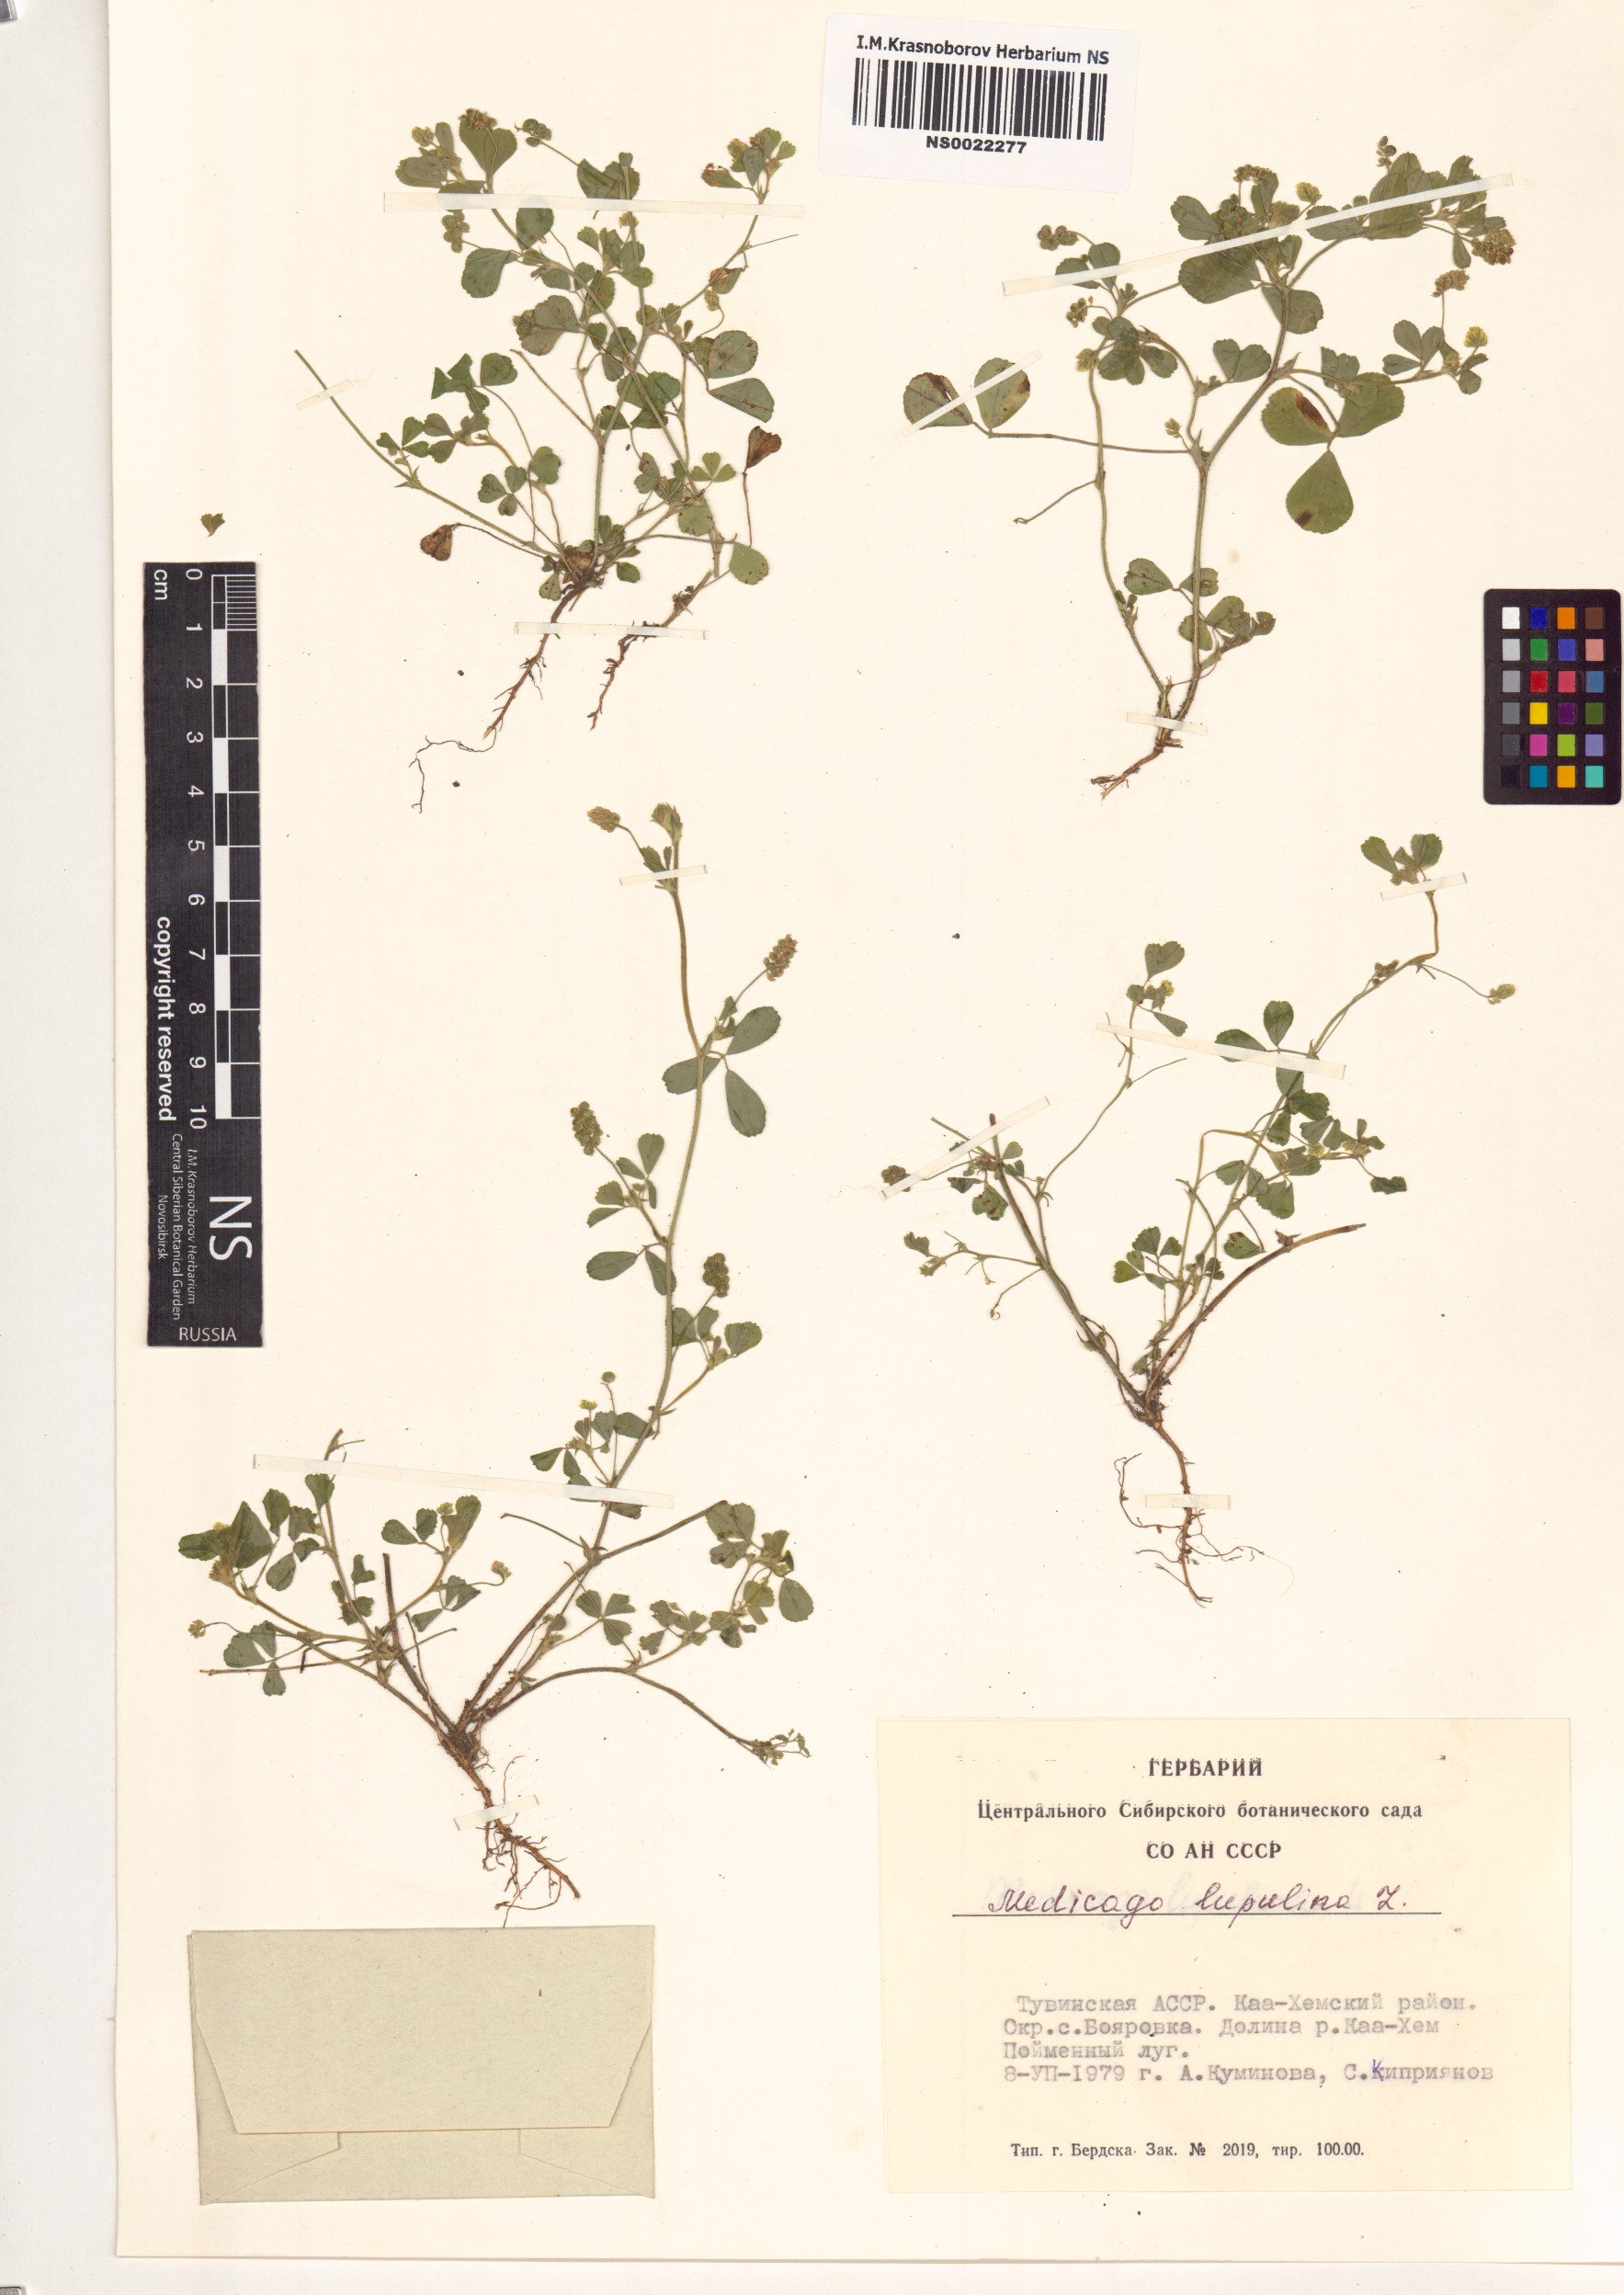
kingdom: Plantae
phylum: Tracheophyta
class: Magnoliopsida
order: Fabales
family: Fabaceae
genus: Medicago
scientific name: Medicago lupulina
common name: Black medick
